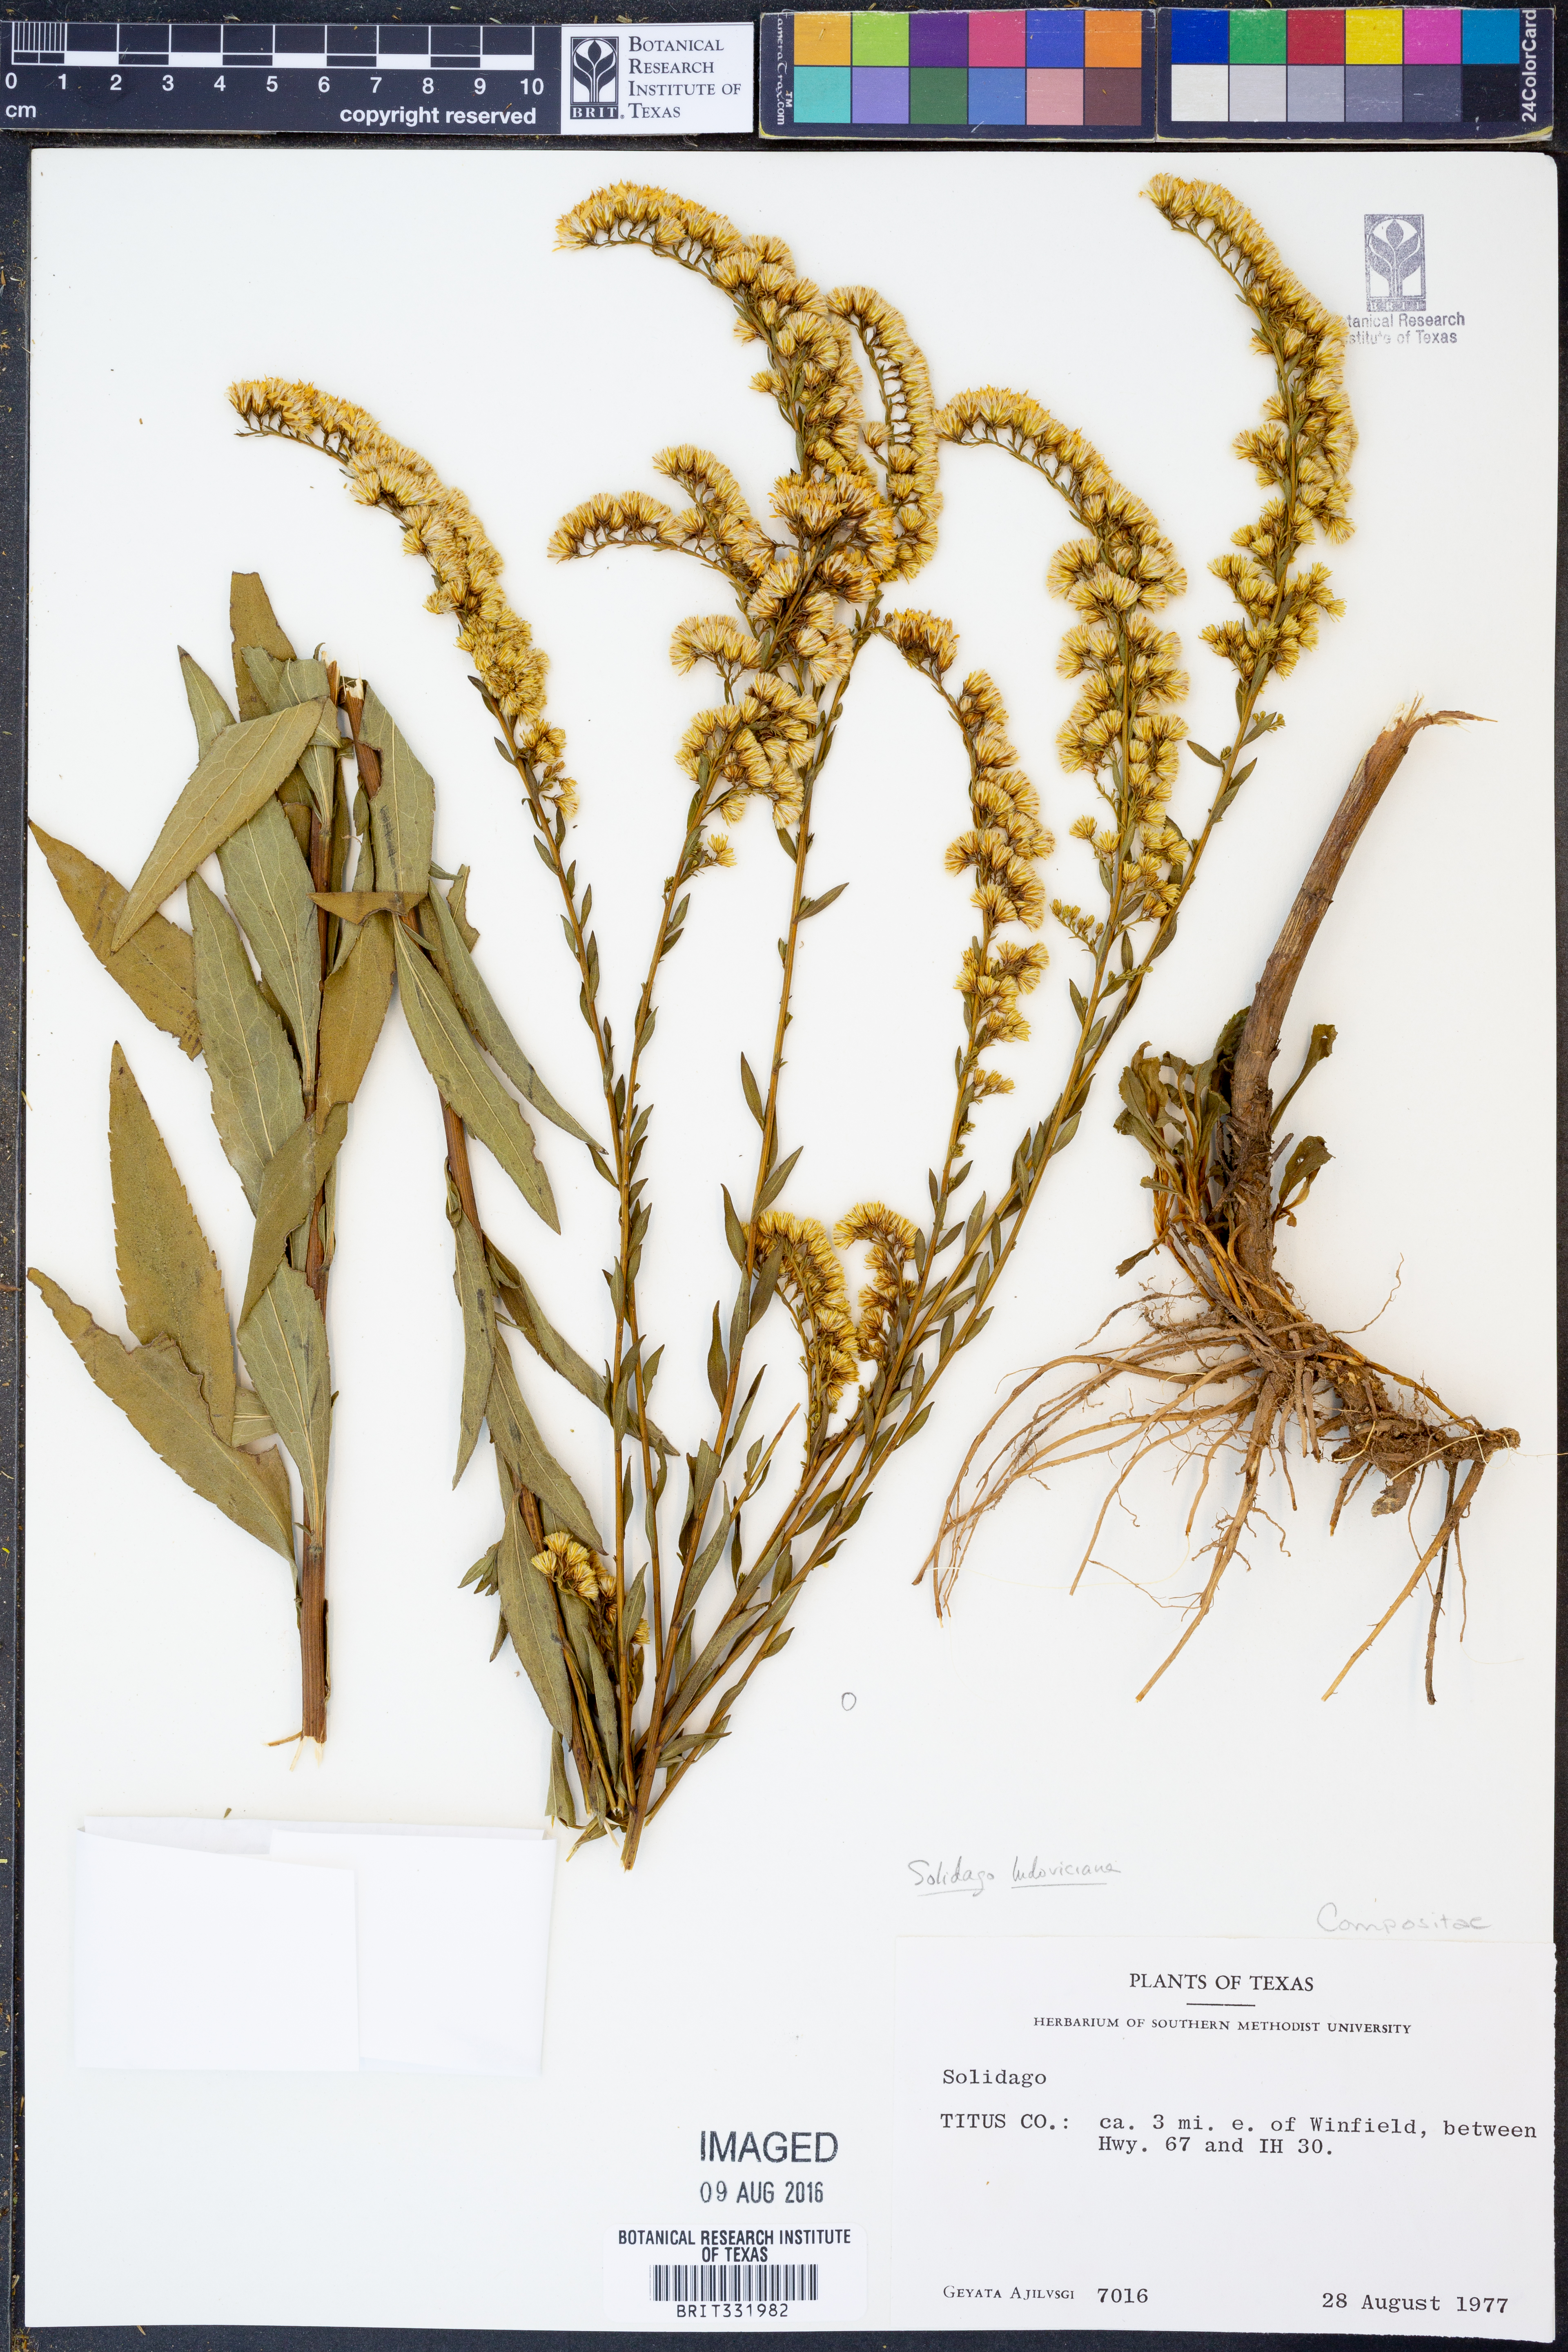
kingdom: Plantae
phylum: Tracheophyta
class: Magnoliopsida
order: Asterales
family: Asteraceae
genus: Solidago
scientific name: Solidago ludoviciana
